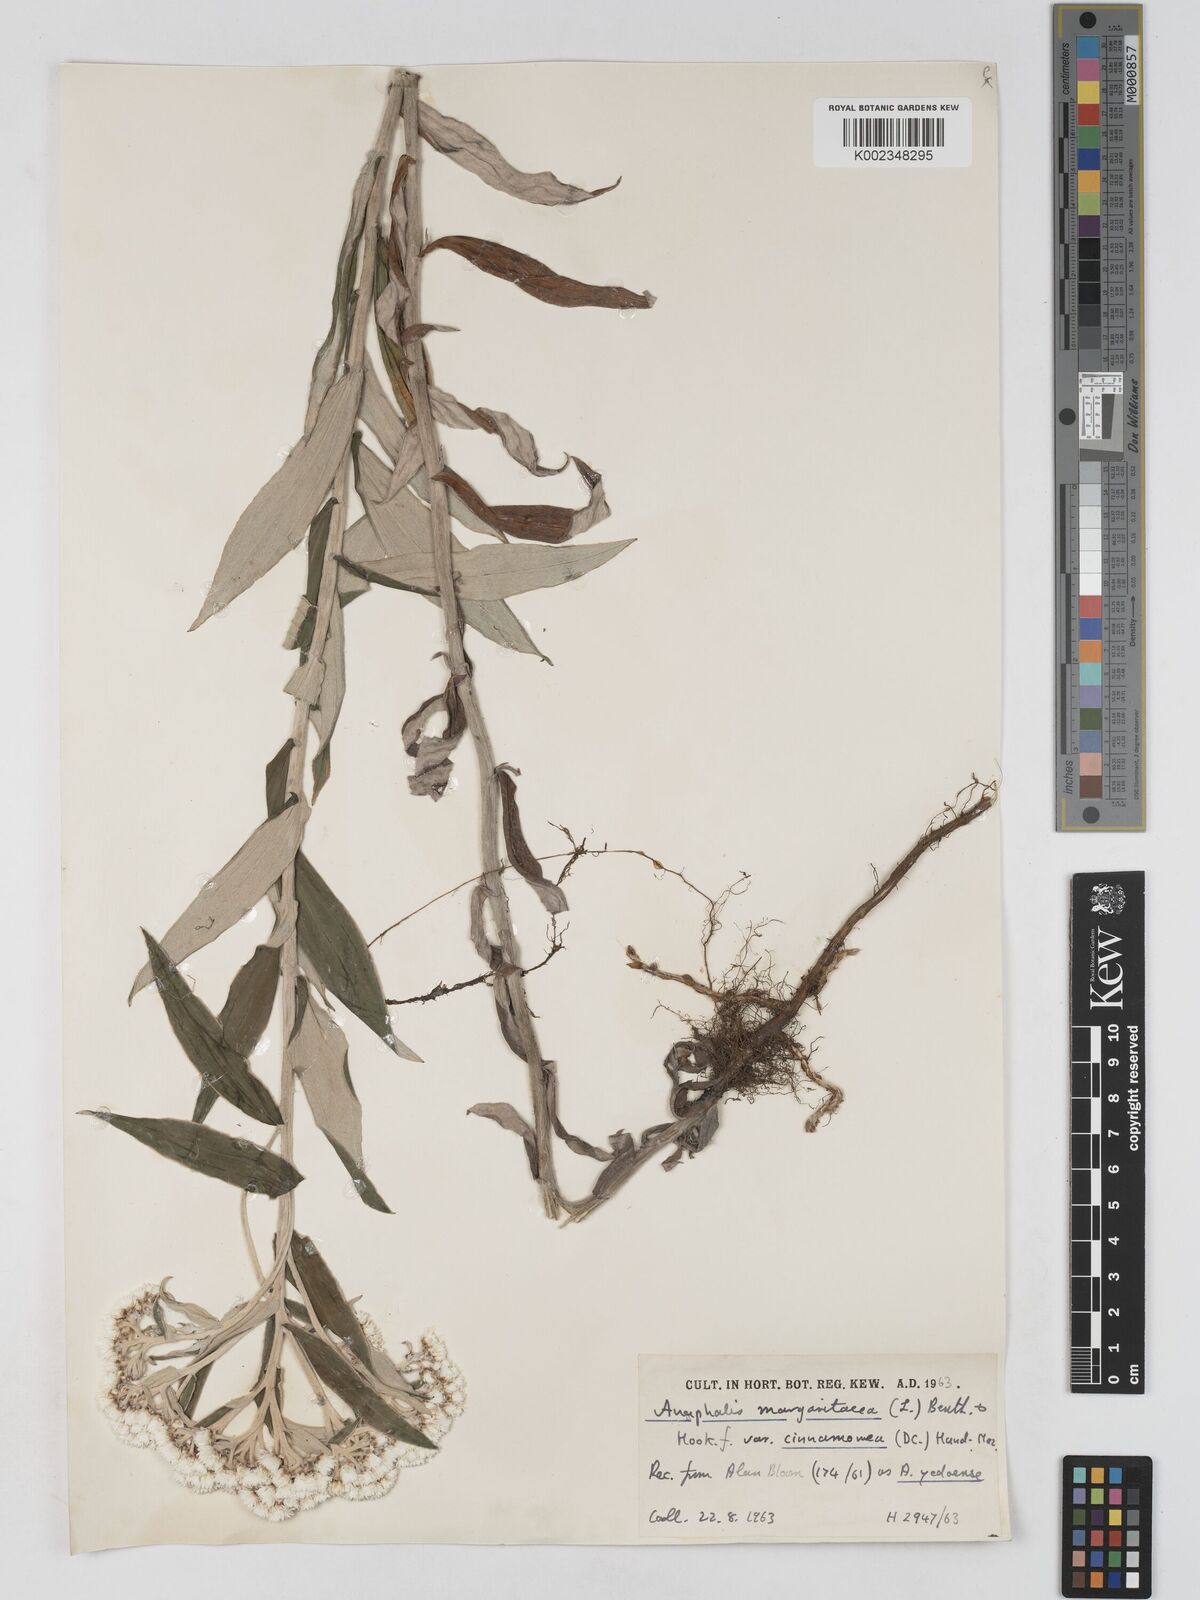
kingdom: Plantae
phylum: Tracheophyta
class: Magnoliopsida
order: Asterales
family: Asteraceae
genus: Anaphalis
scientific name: Anaphalis margaritacea
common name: Pearly everlasting
